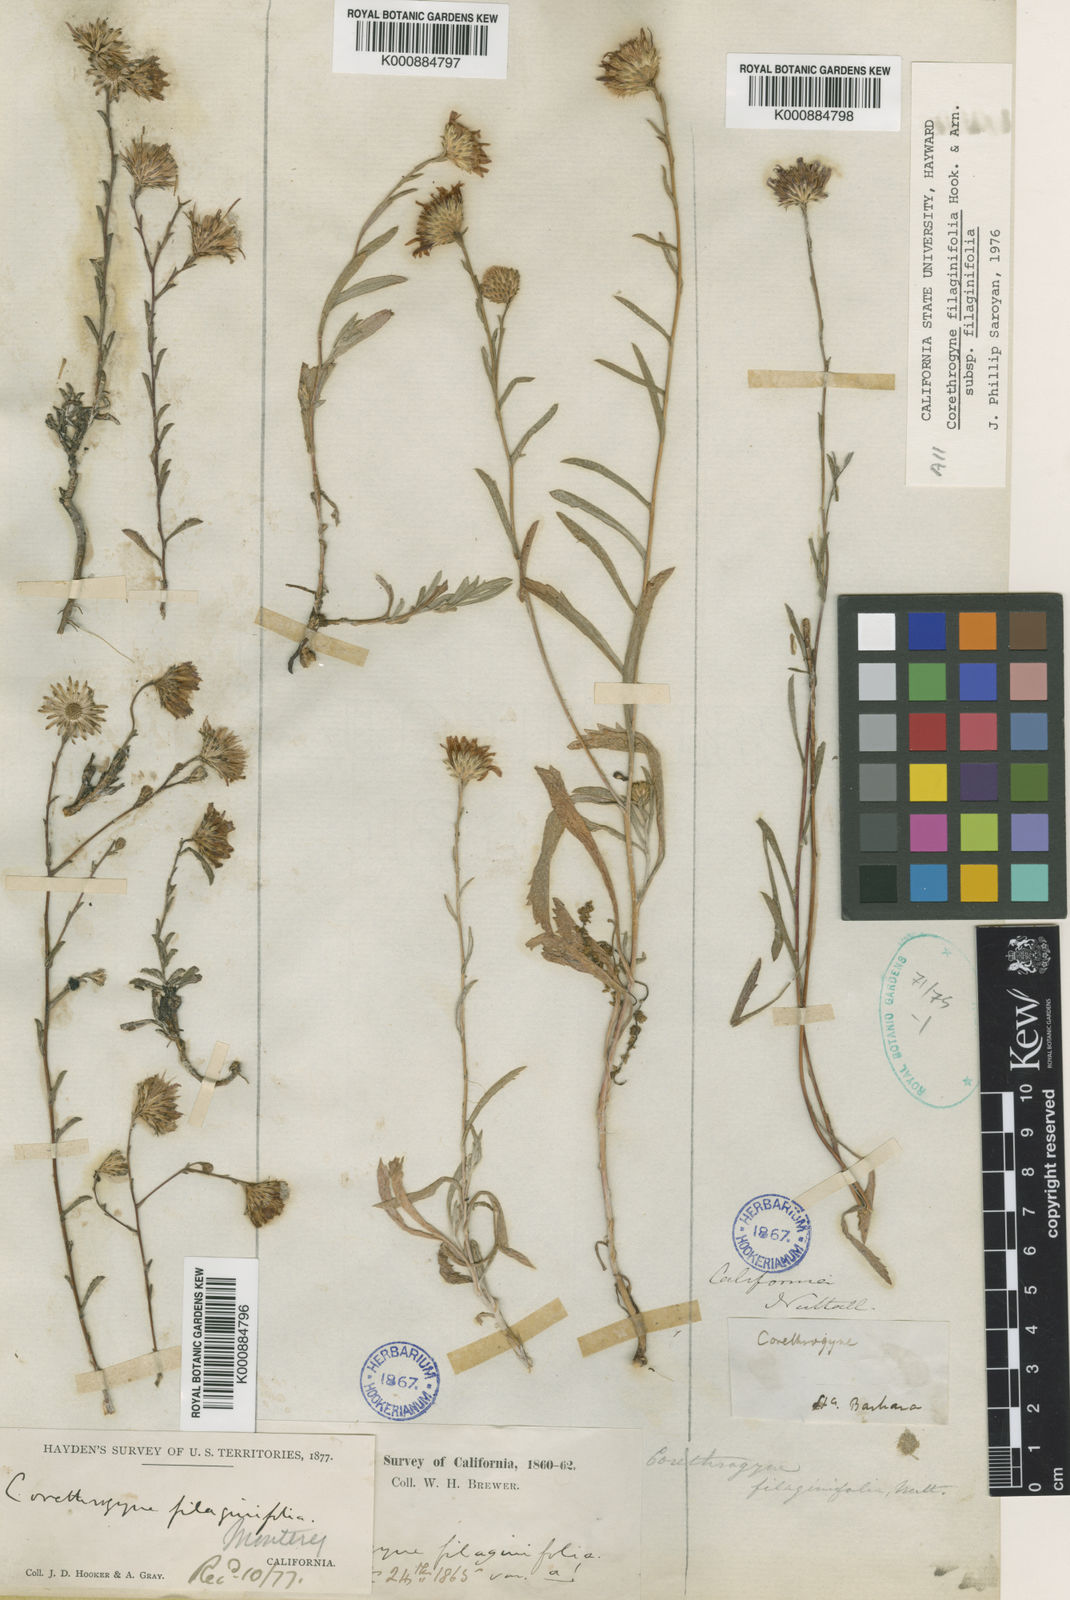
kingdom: Plantae
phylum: Tracheophyta
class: Magnoliopsida
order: Asterales
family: Asteraceae
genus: Corethrogyne
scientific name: Corethrogyne filaginifolia
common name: Sand-aster
